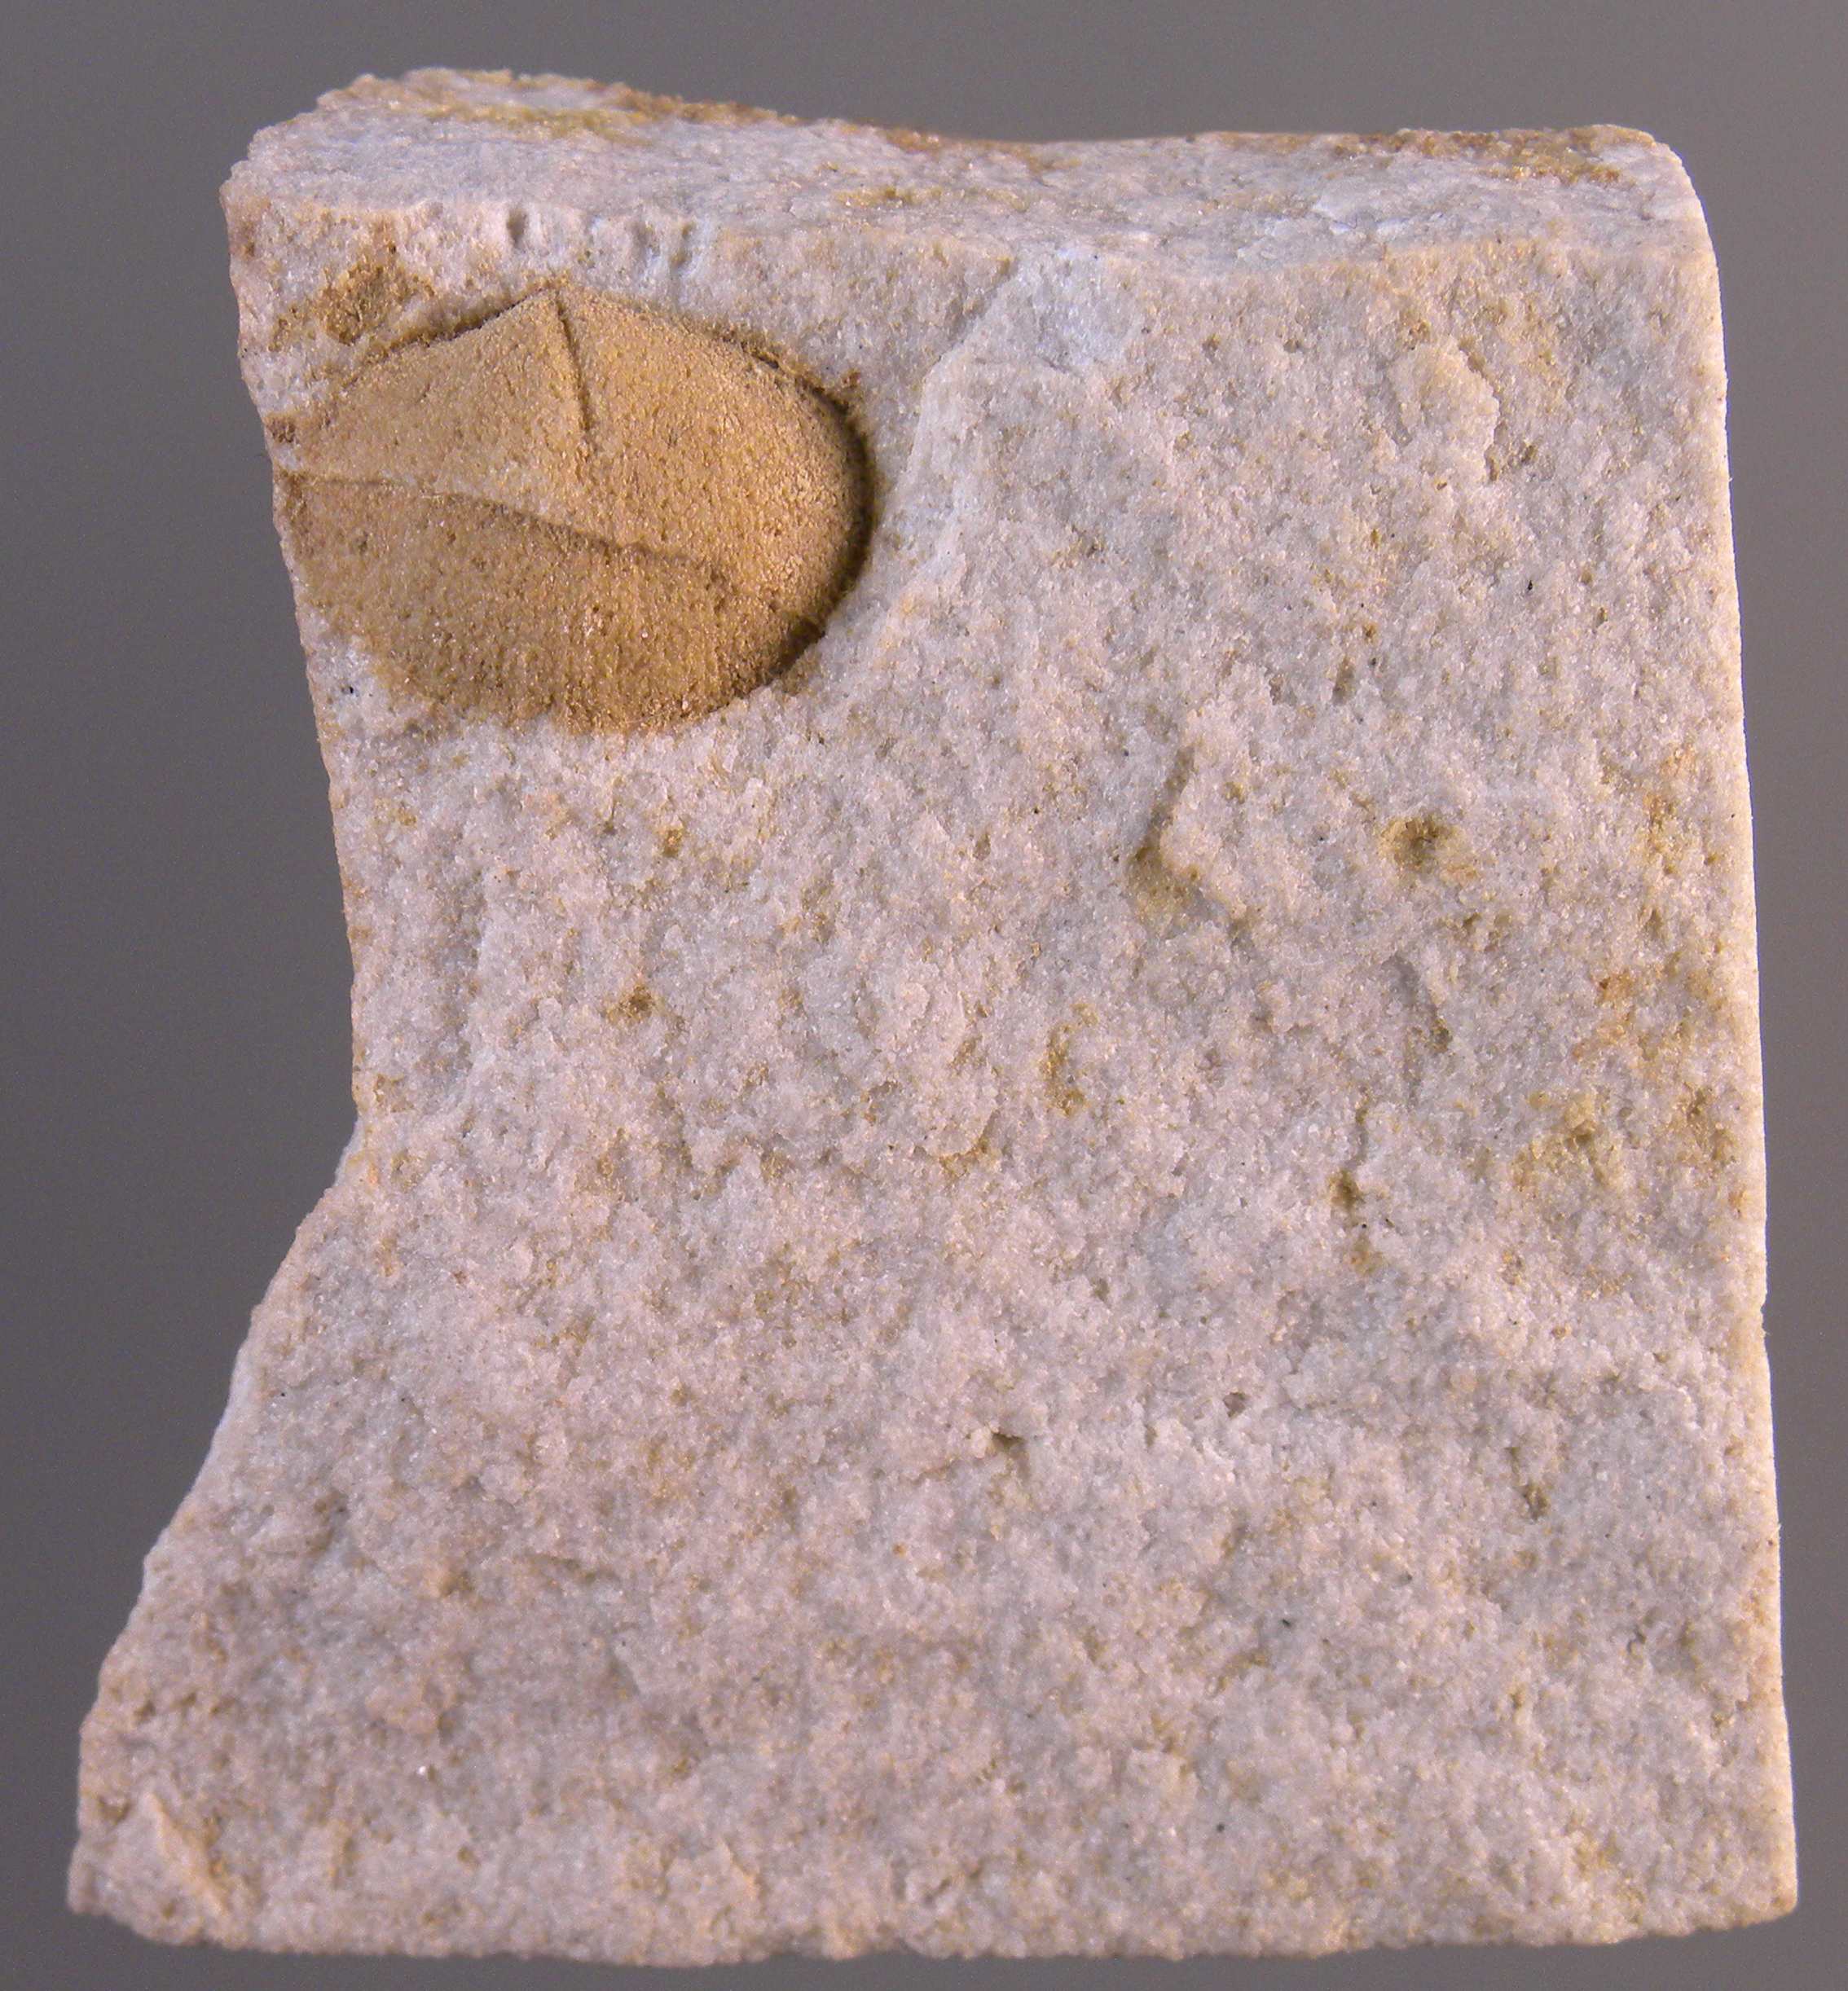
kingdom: Animalia
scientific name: Animalia
